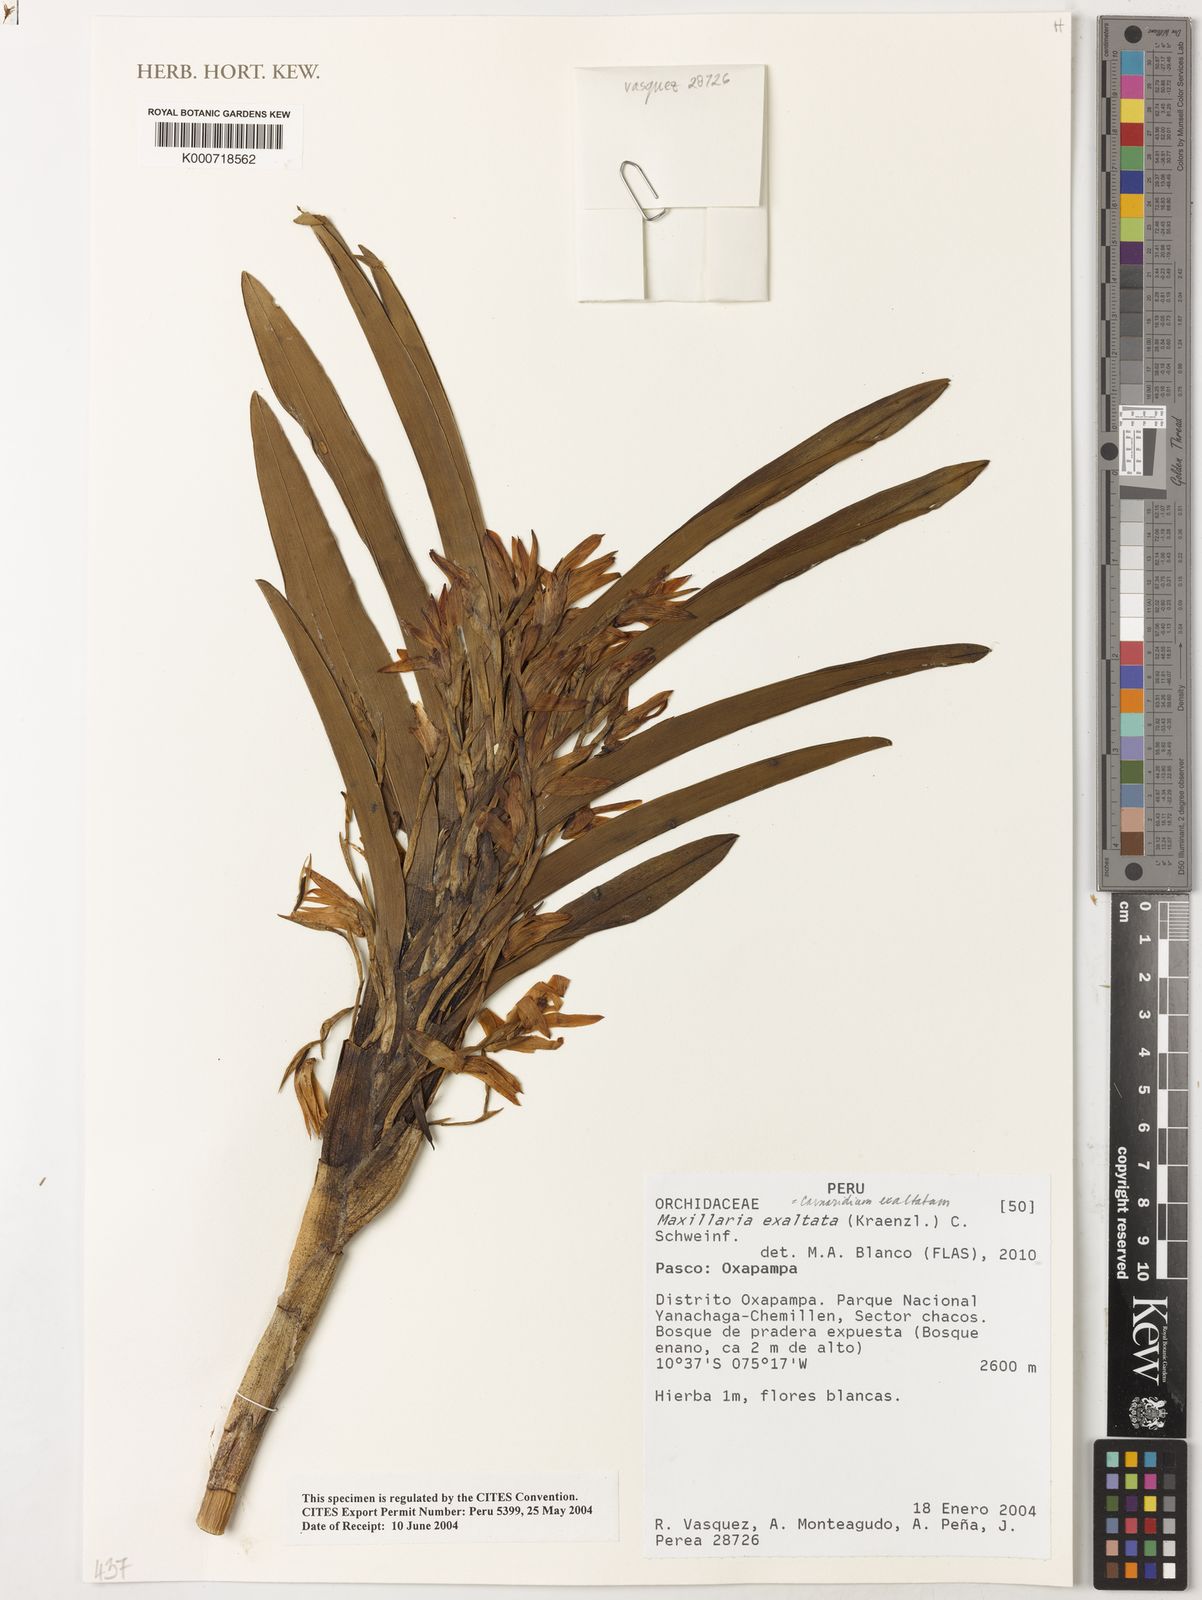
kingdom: Plantae
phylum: Tracheophyta
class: Liliopsida
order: Asparagales
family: Orchidaceae
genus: Maxillaria
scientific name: Maxillaria exaltata
